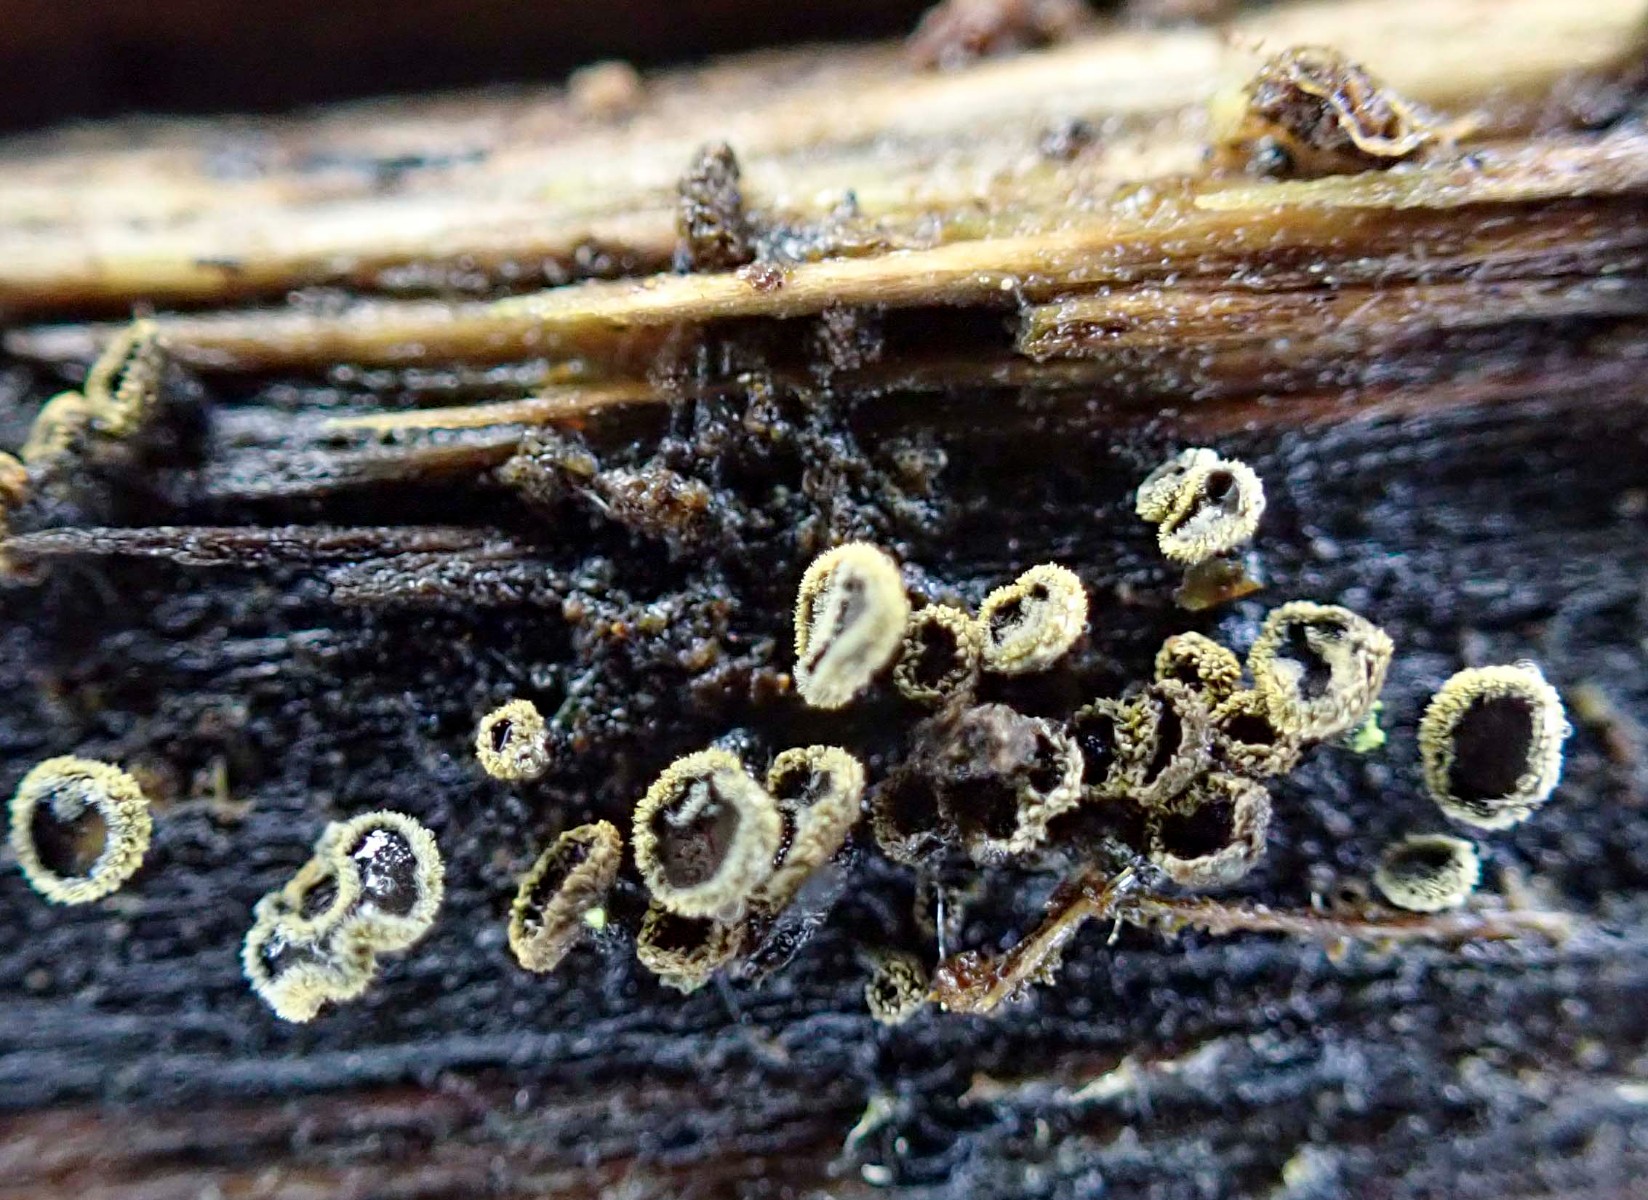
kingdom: Fungi
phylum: Ascomycota
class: Leotiomycetes
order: Helotiales
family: Lachnaceae
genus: Neodasyscypha
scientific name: Neodasyscypha cerina
